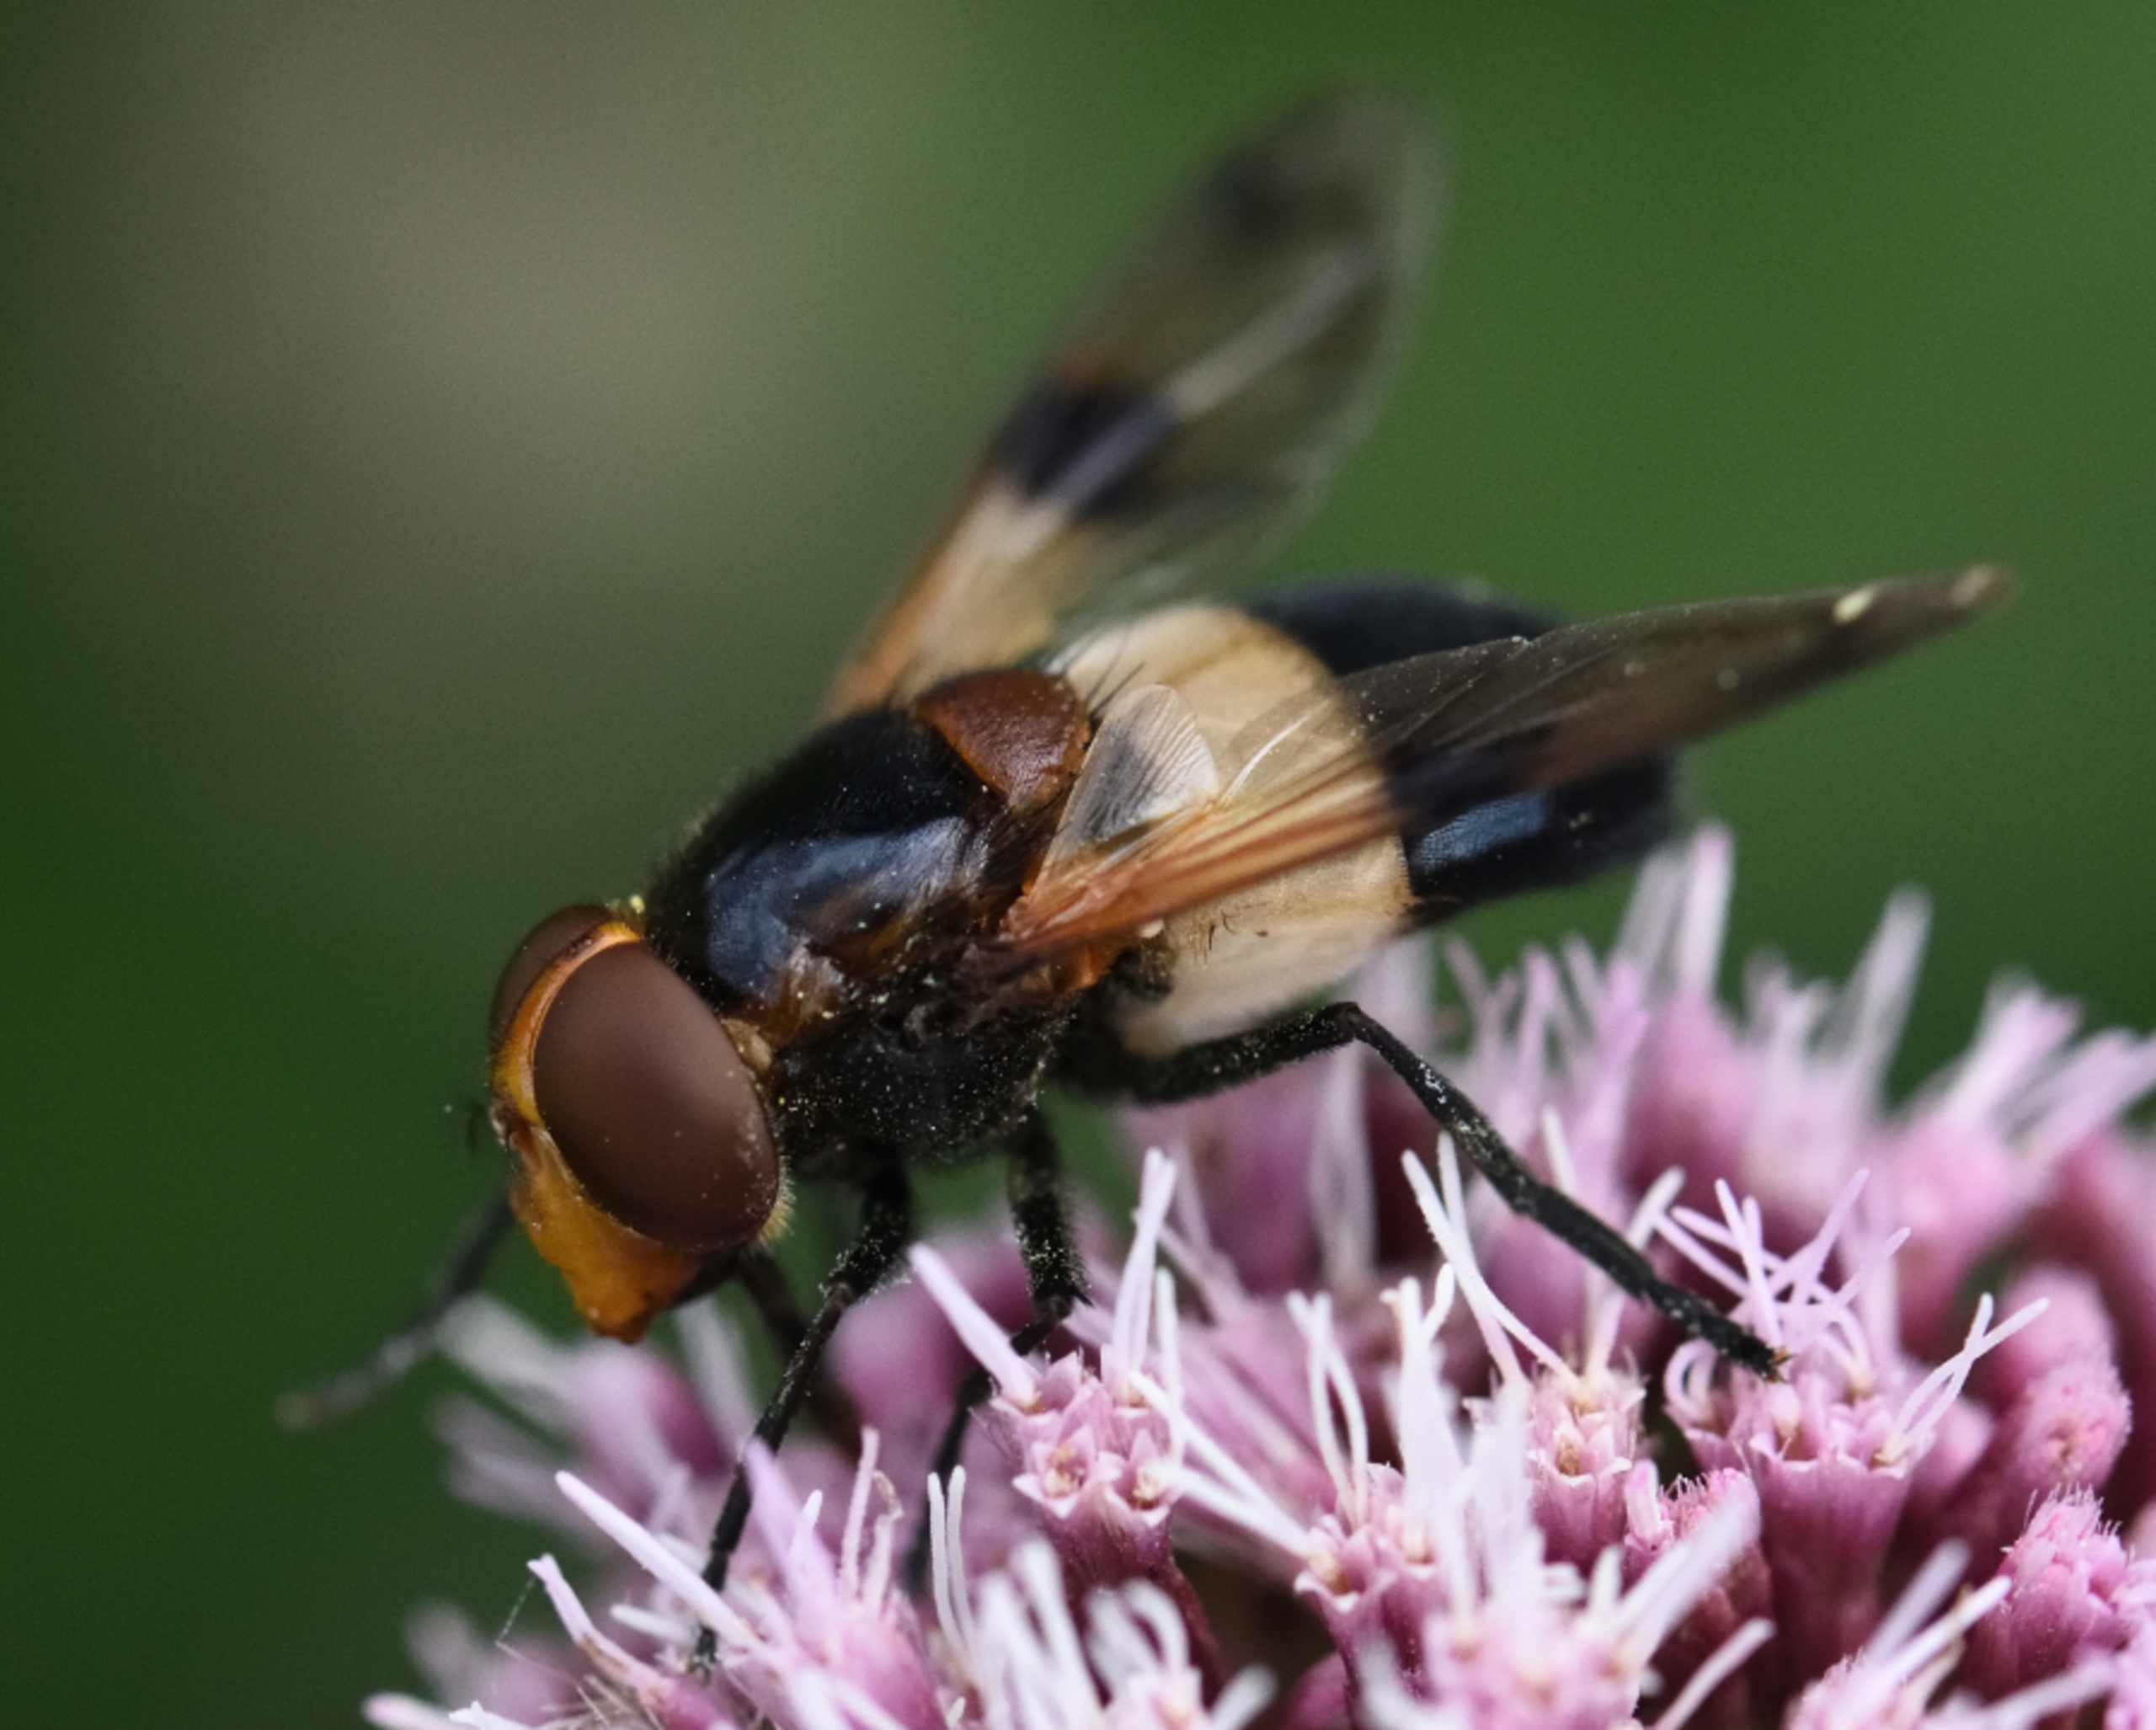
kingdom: Animalia
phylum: Arthropoda
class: Insecta
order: Diptera
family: Syrphidae
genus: Volucella
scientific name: Volucella pellucens
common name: Hvidbåndet humlesvirreflue
